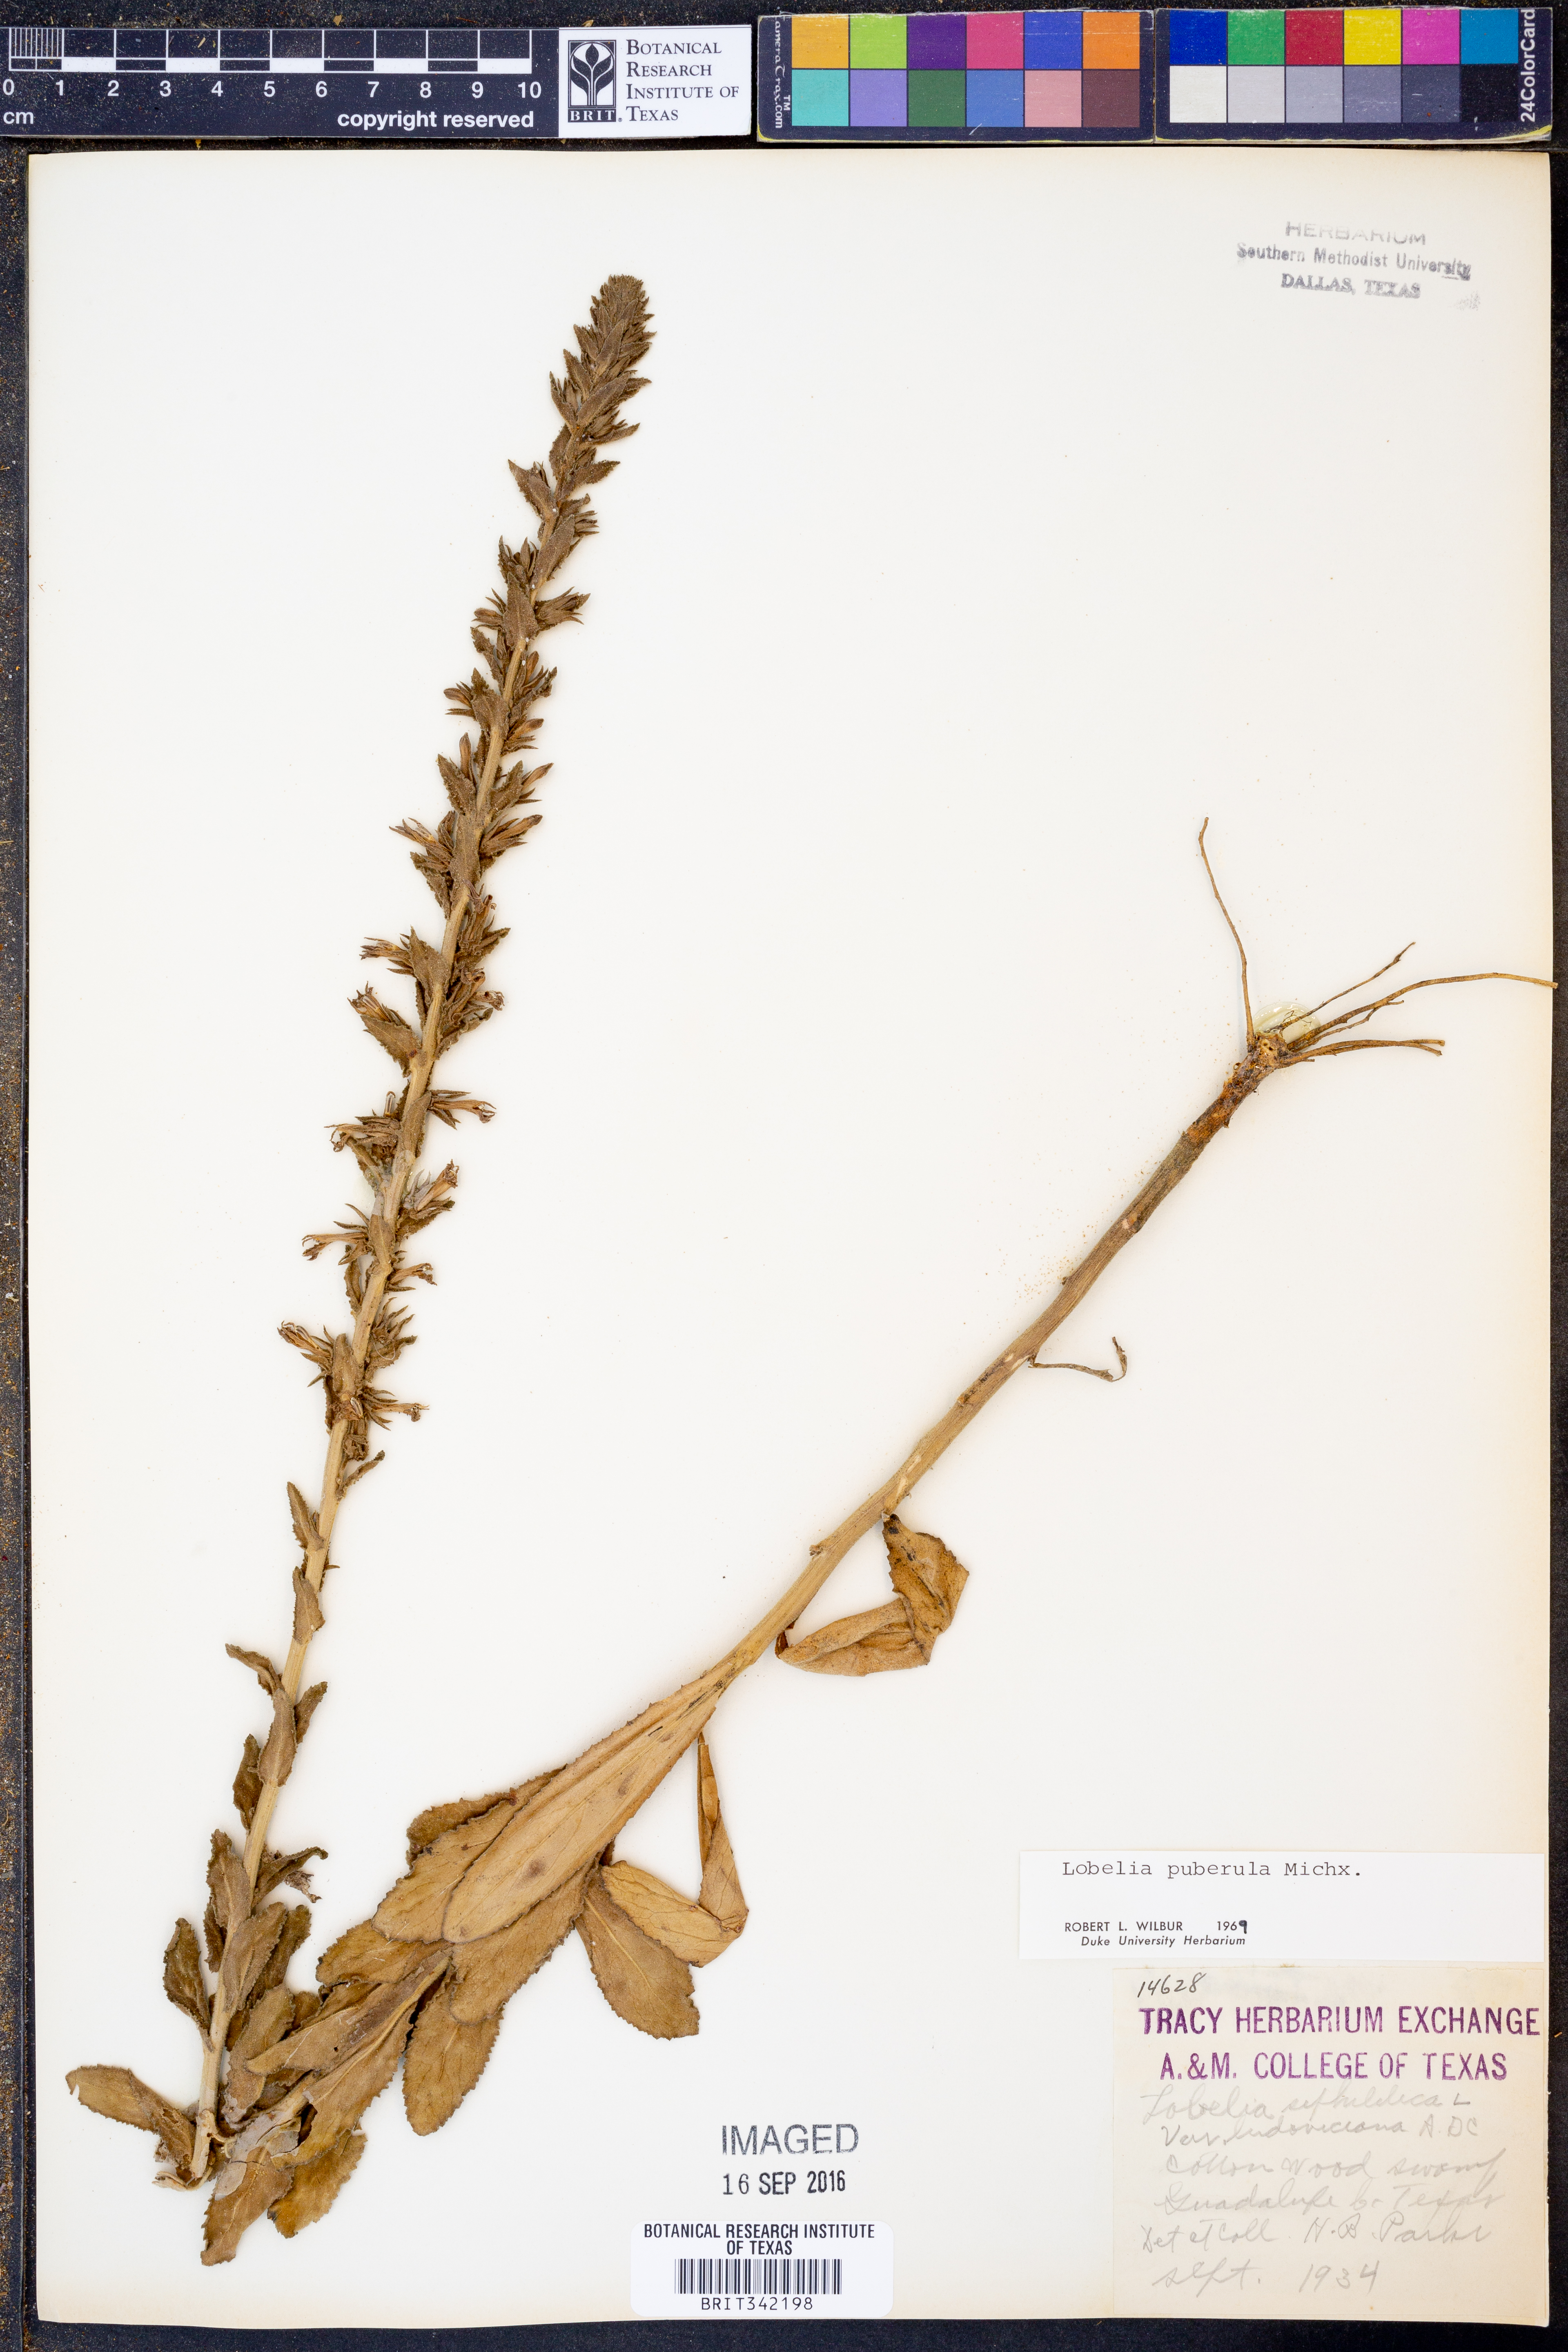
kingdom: Plantae
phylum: Tracheophyta
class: Magnoliopsida
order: Asterales
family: Campanulaceae
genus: Lobelia
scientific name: Lobelia puberula
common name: Purple dewdrop
